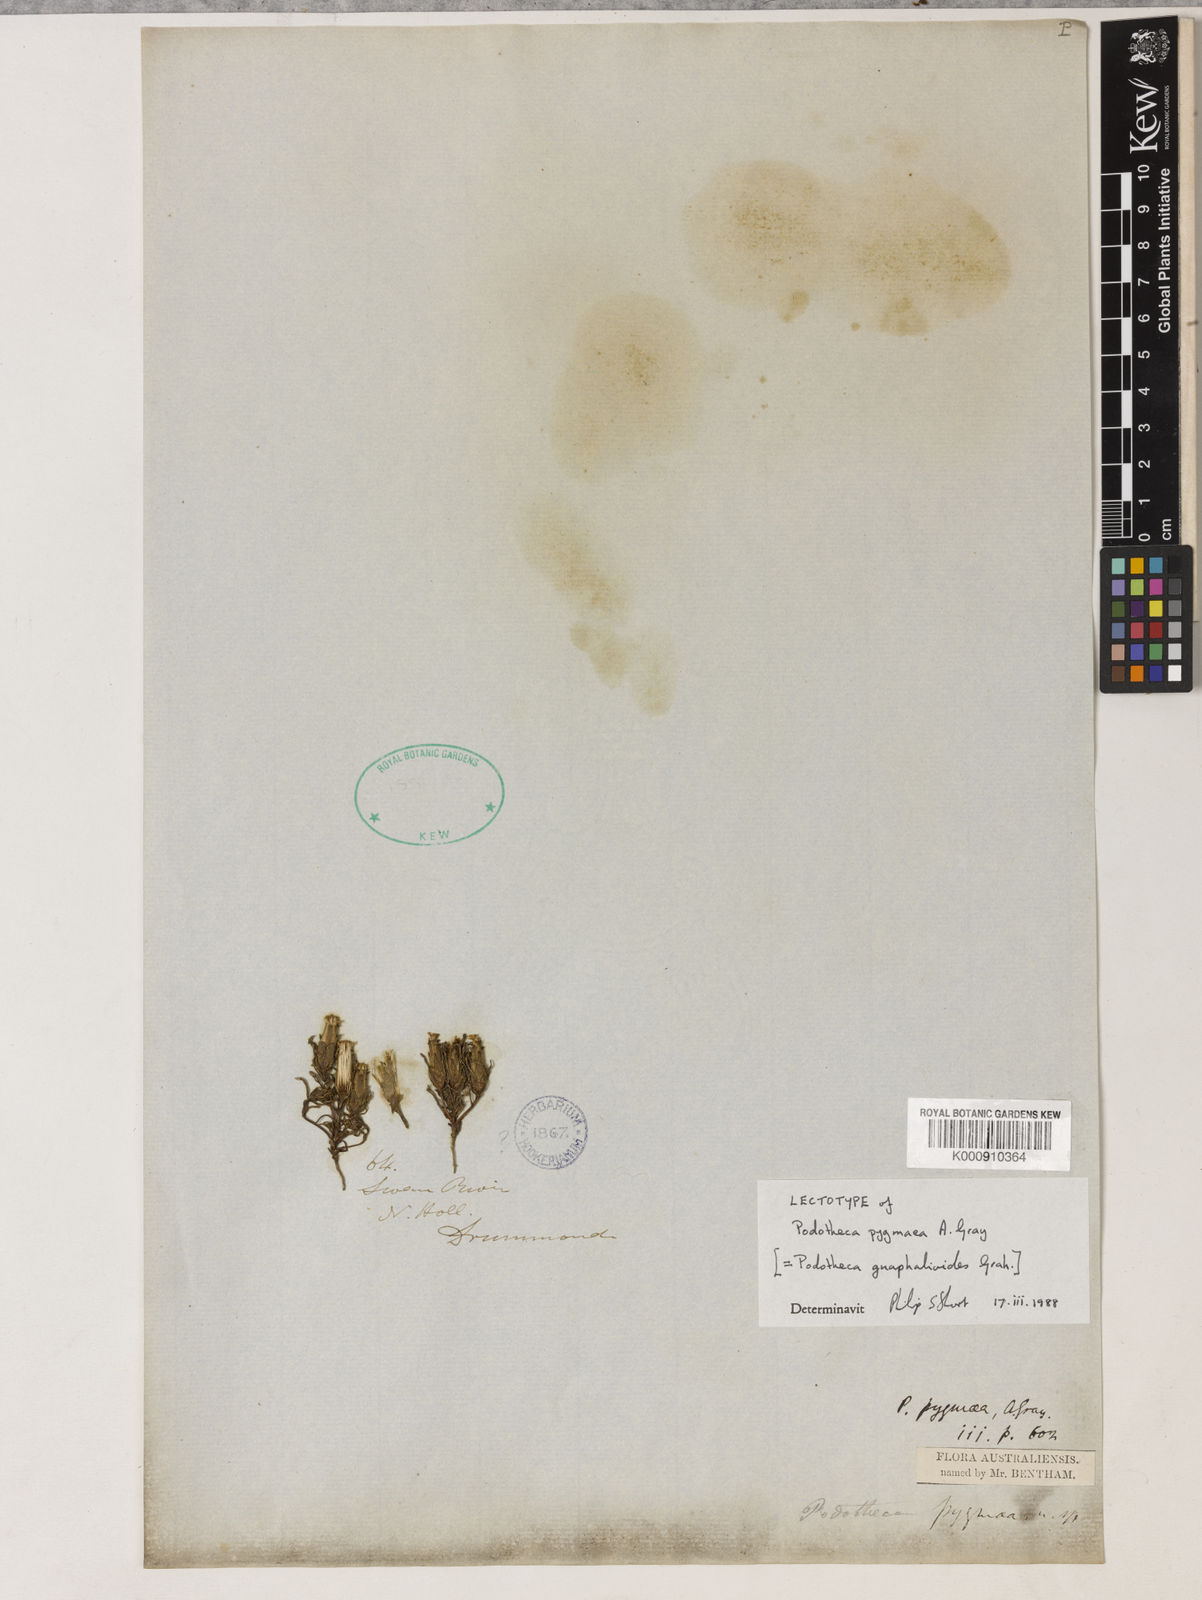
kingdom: Plantae
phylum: Tracheophyta
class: Magnoliopsida
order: Asterales
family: Asteraceae
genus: Podotheca
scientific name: Podotheca
